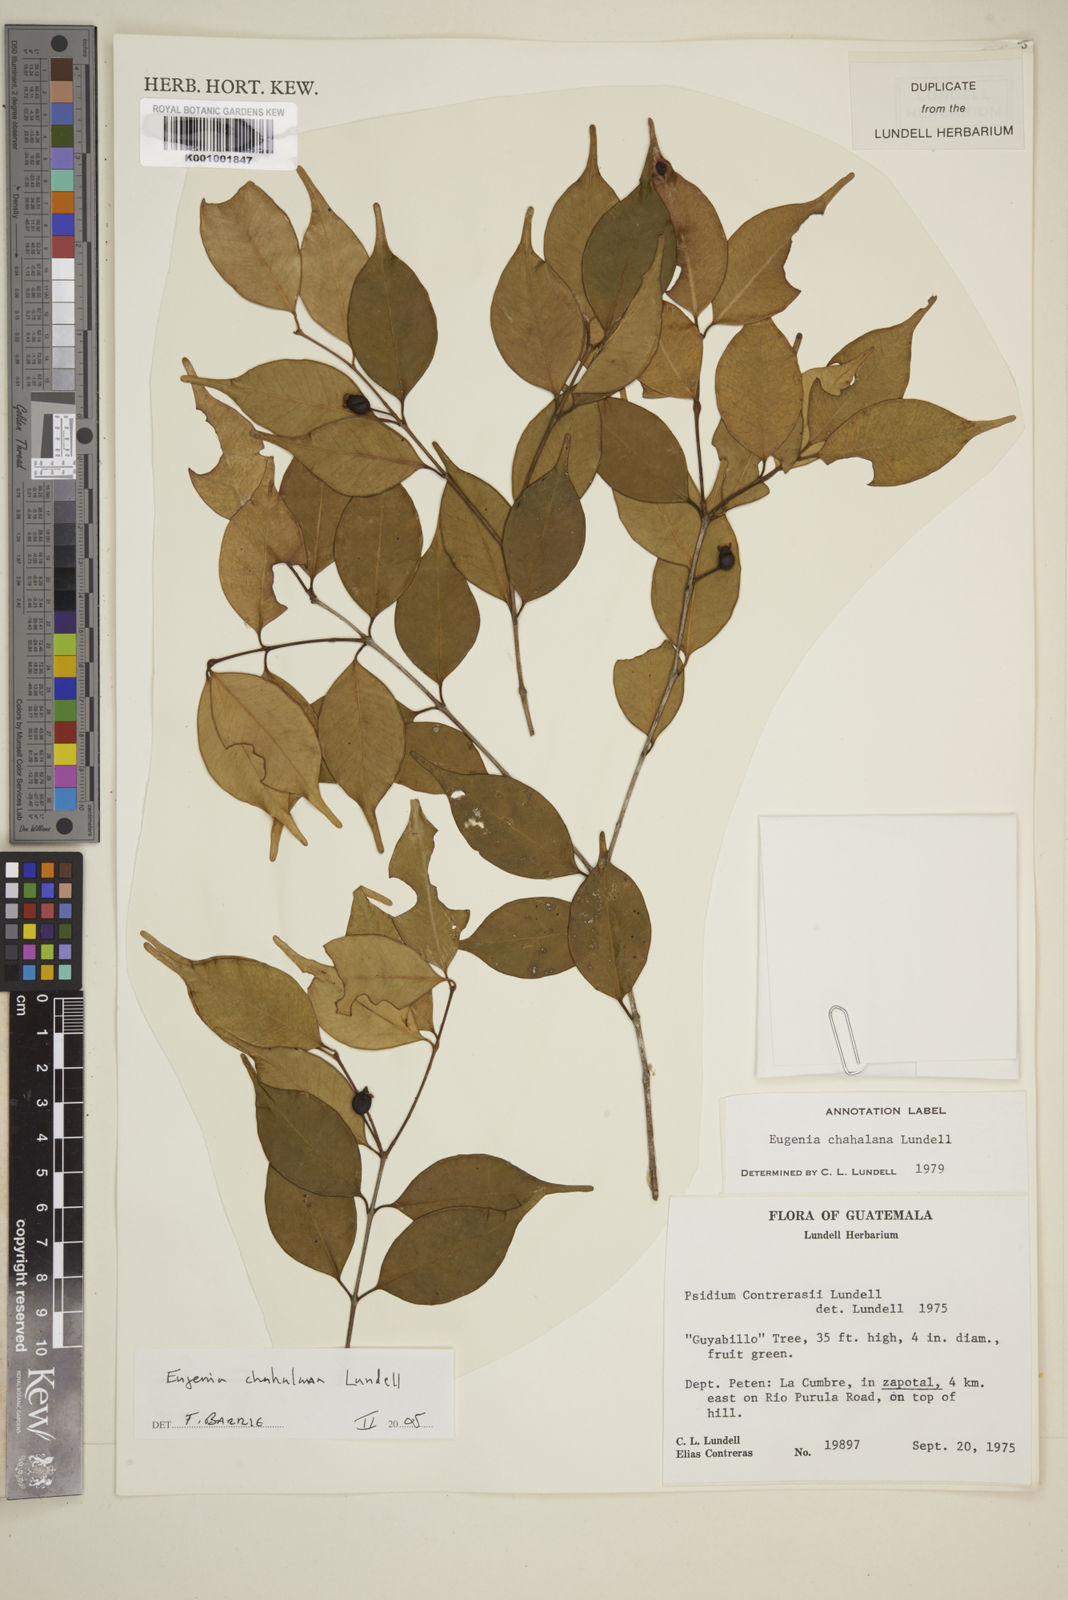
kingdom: Plantae
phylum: Tracheophyta
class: Magnoliopsida
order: Myrtales
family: Myrtaceae
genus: Eugenia
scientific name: Eugenia chahalana
